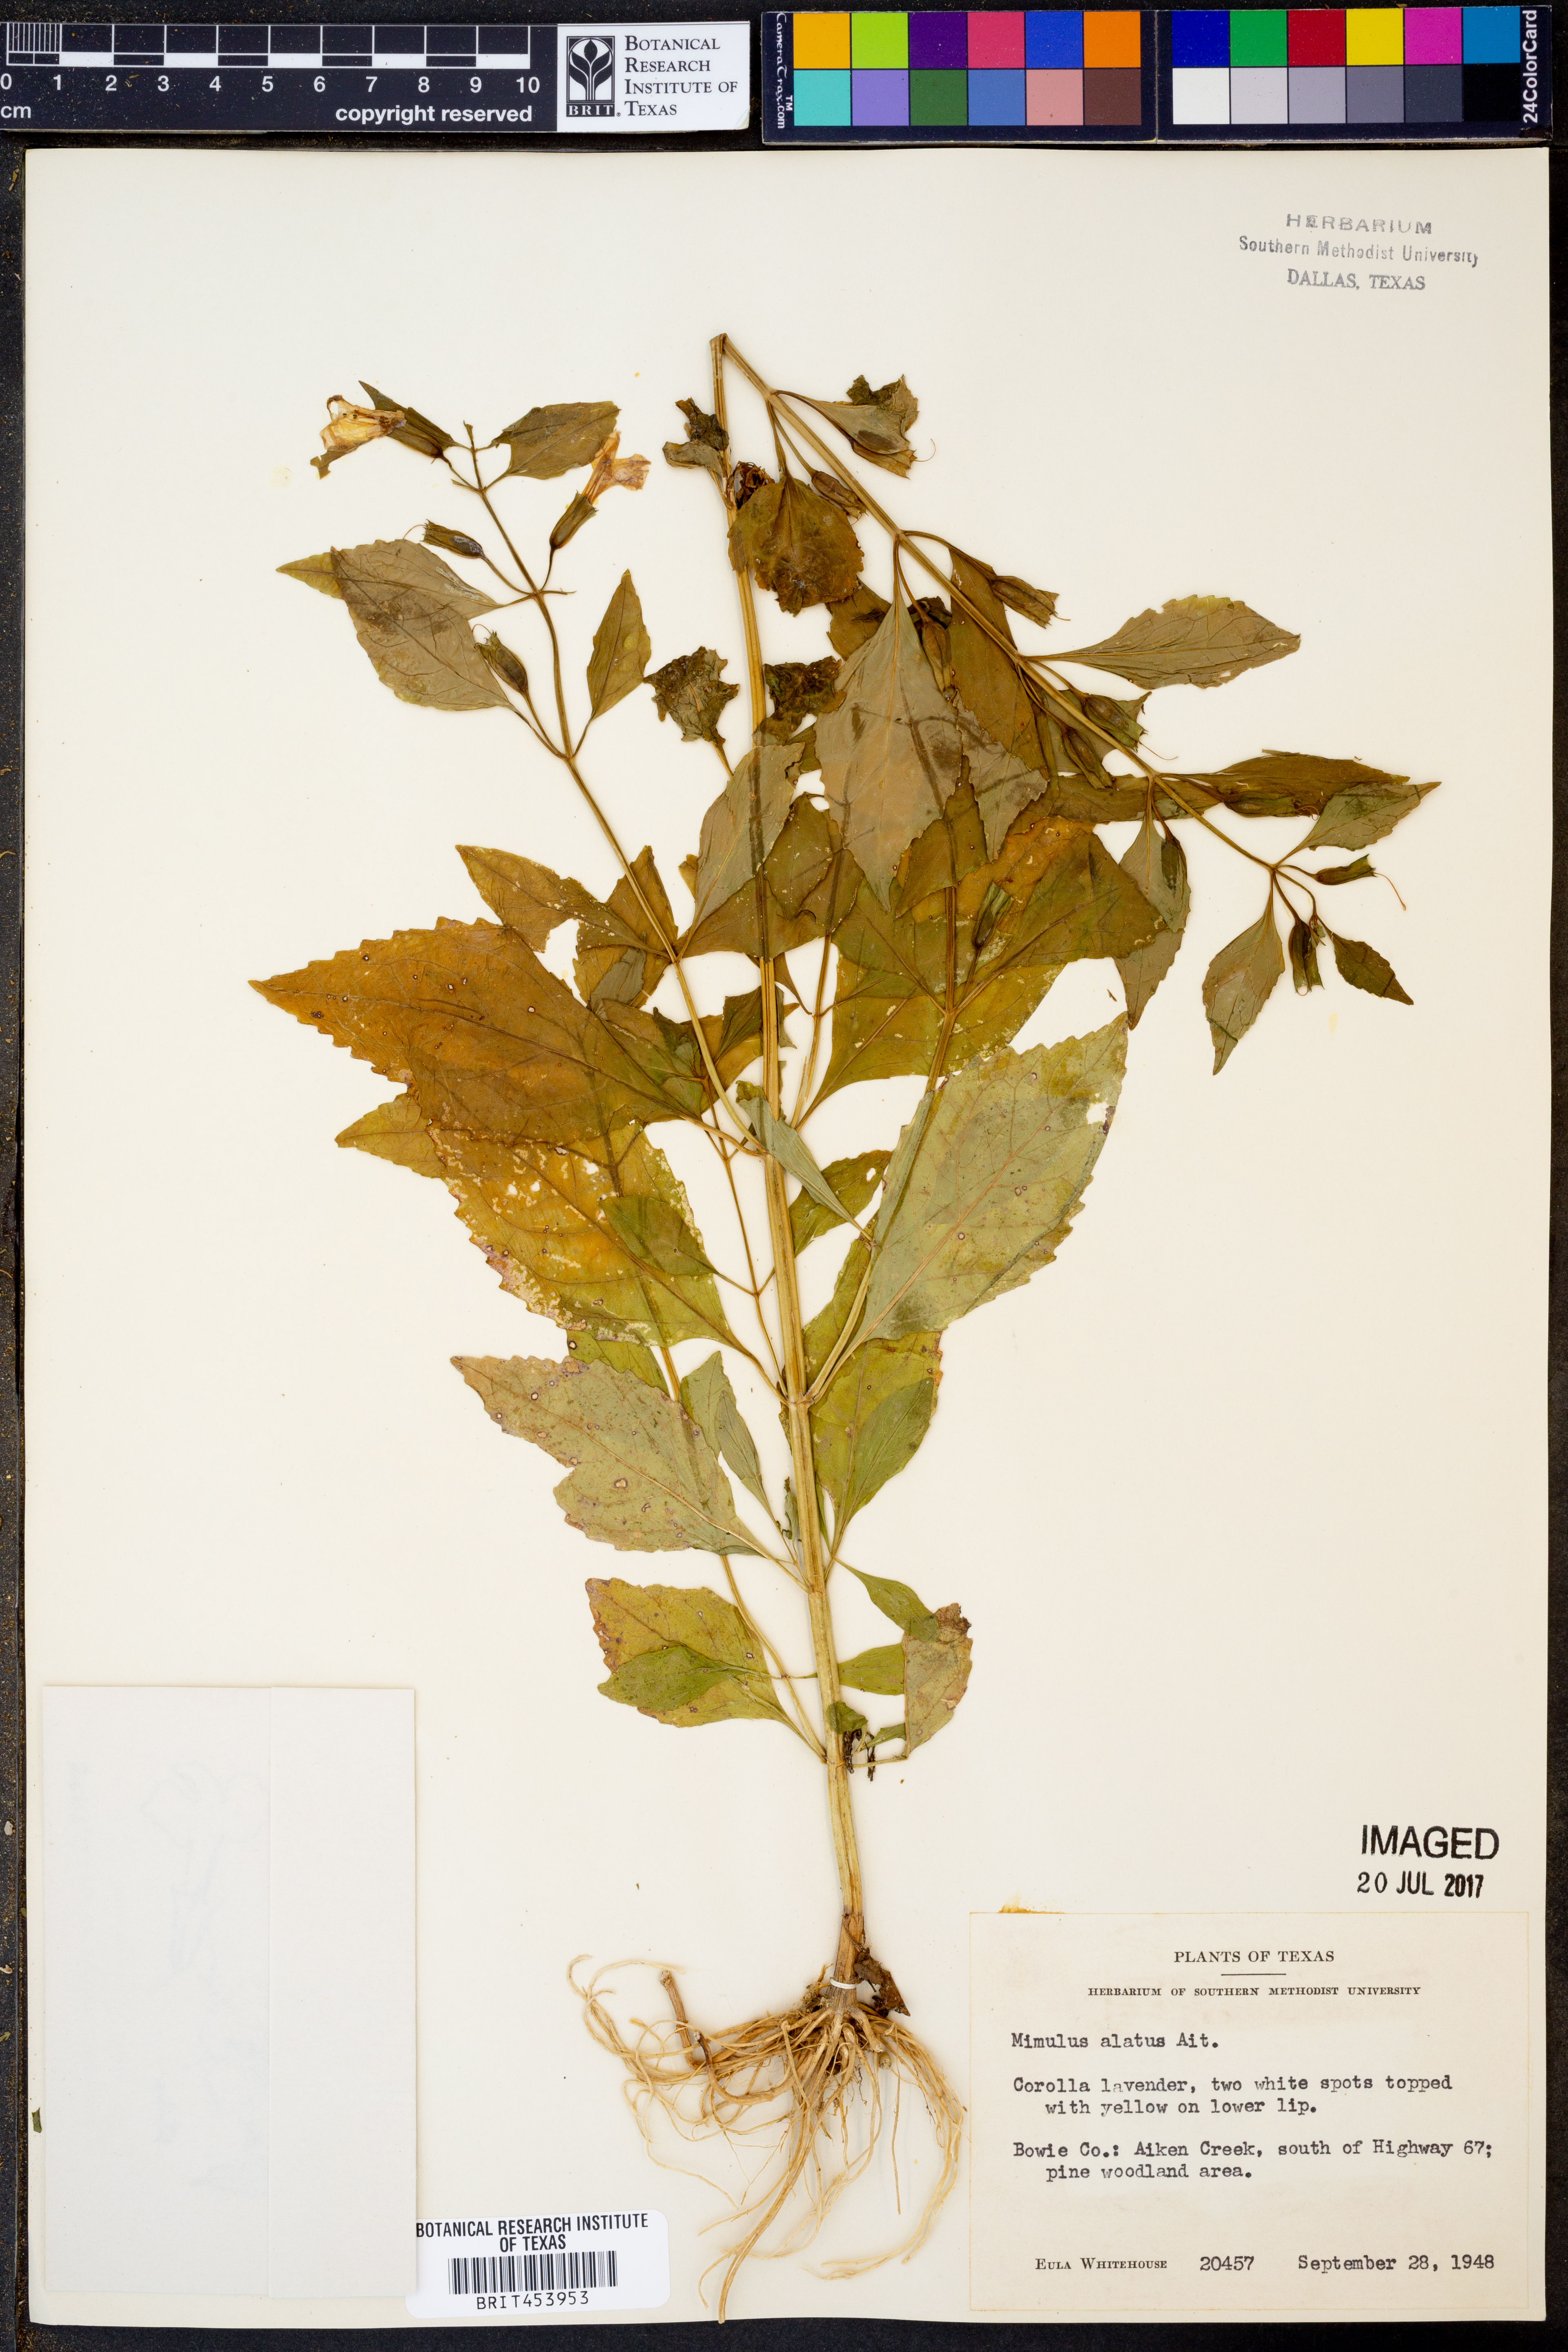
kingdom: Plantae
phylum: Tracheophyta
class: Magnoliopsida
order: Lamiales
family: Phrymaceae
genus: Mimulus
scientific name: Mimulus alatus
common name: Sharp-wing monkey-flower
